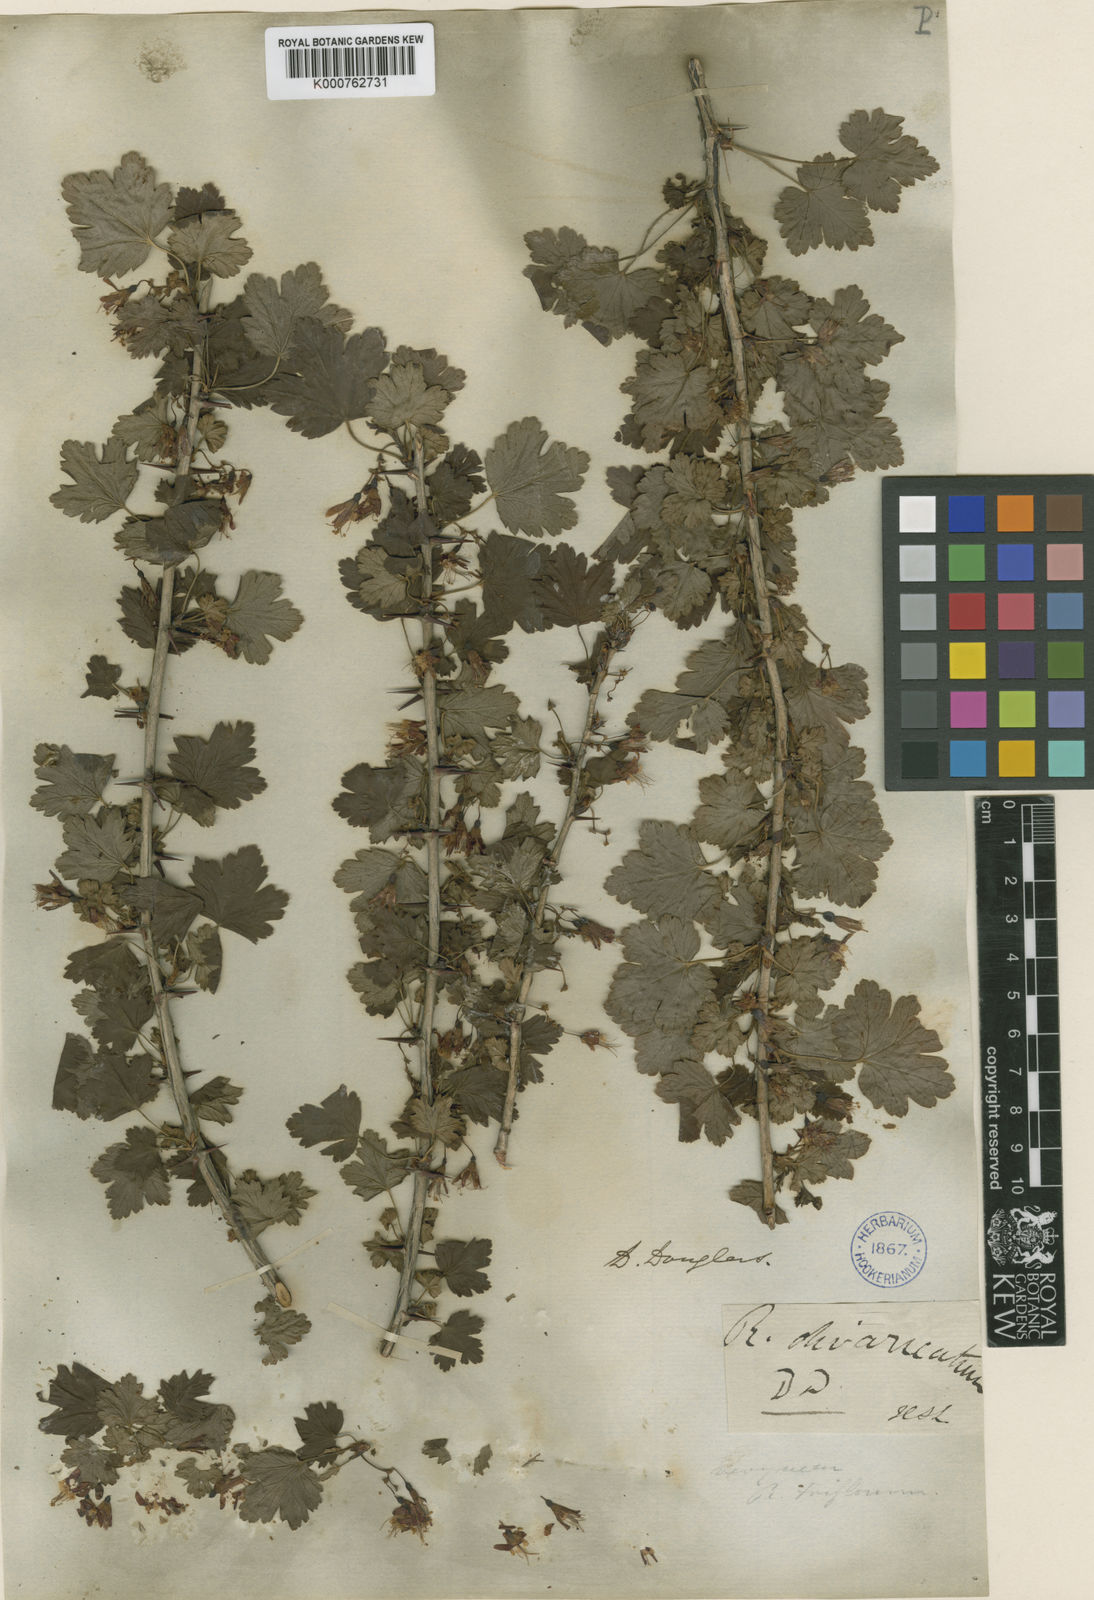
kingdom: Plantae
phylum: Tracheophyta
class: Magnoliopsida
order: Saxifragales
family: Grossulariaceae
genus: Ribes
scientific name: Ribes divaricatum
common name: Wild black gooseberry
